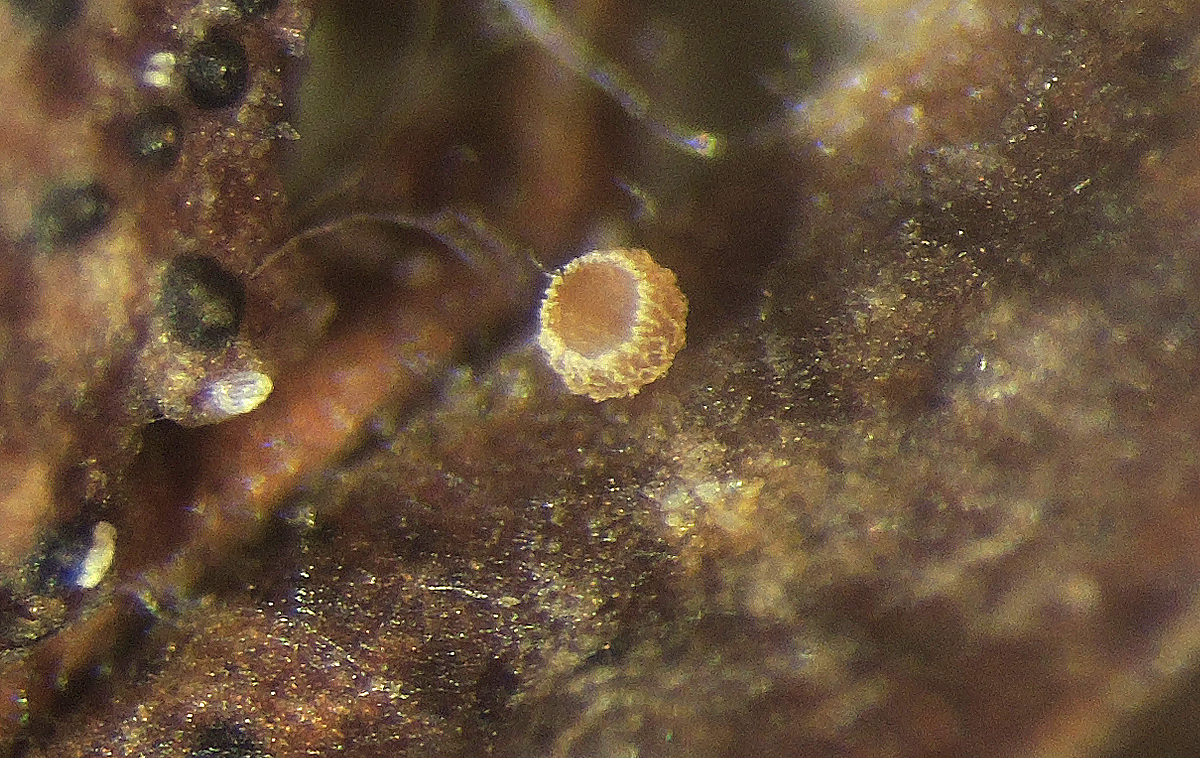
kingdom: Fungi
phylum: Ascomycota
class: Leotiomycetes
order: Helotiales
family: Hyaloscyphaceae
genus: Hyalopeziza
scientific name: Hyalopeziza niveocincta
